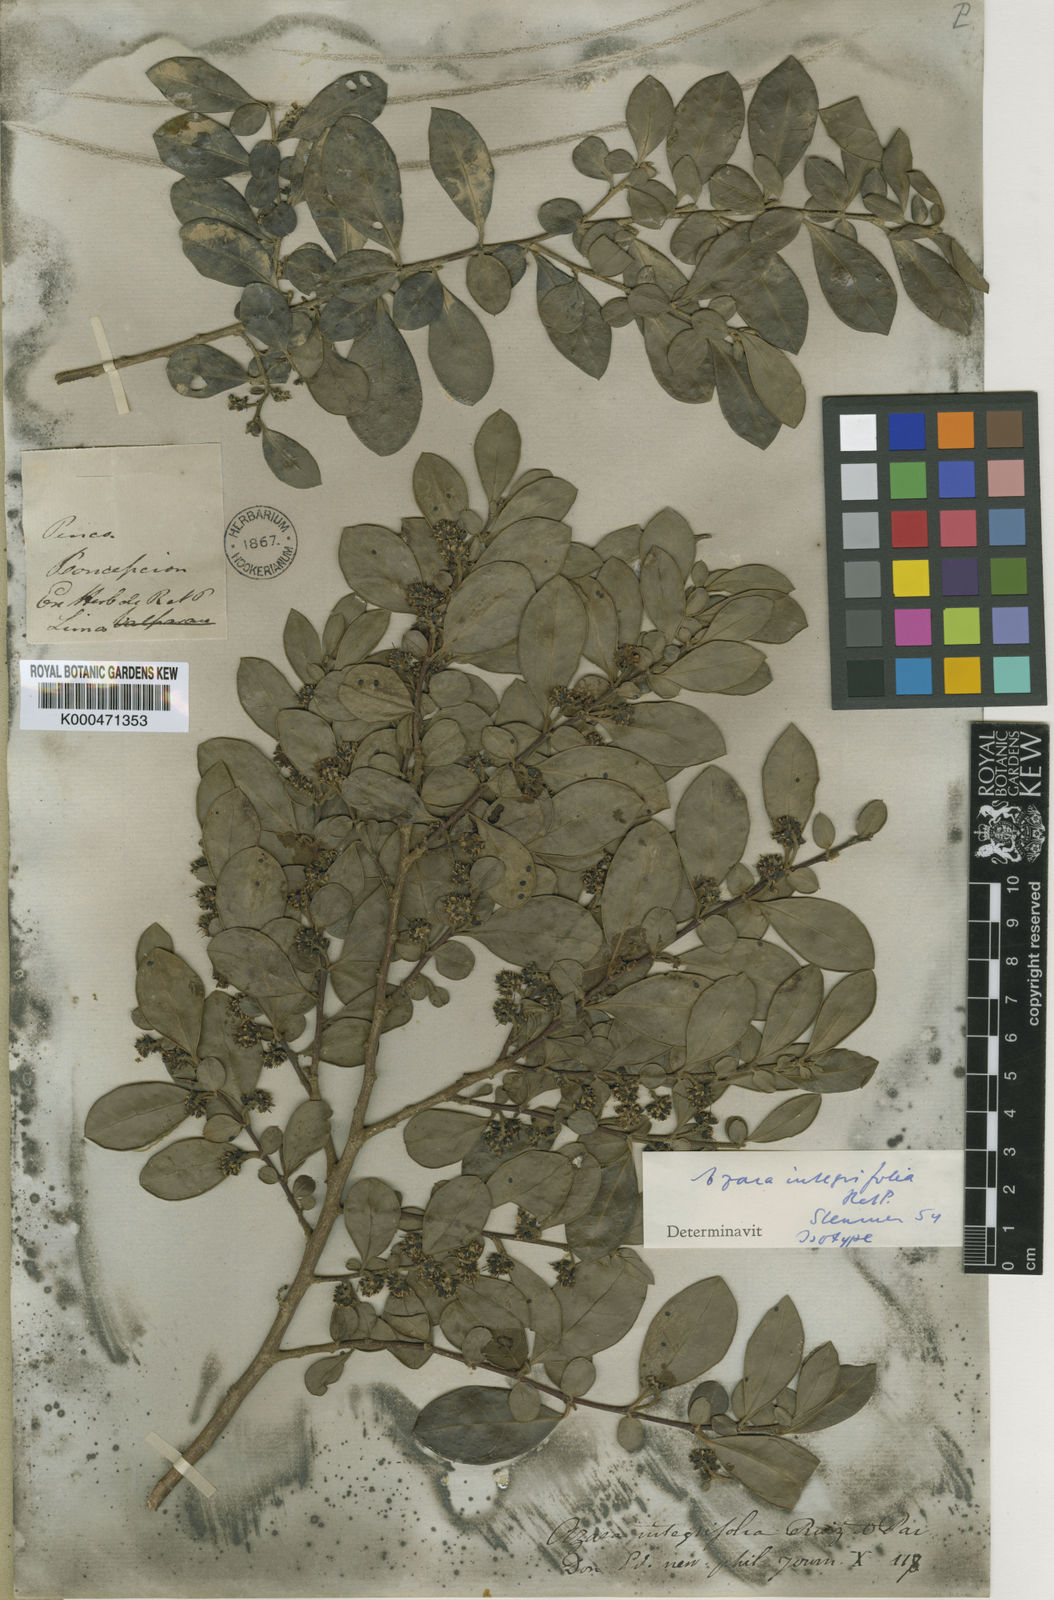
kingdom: Plantae
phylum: Tracheophyta
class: Magnoliopsida
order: Malpighiales
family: Salicaceae
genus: Azara
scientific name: Azara integrifolia
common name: Goldspire
